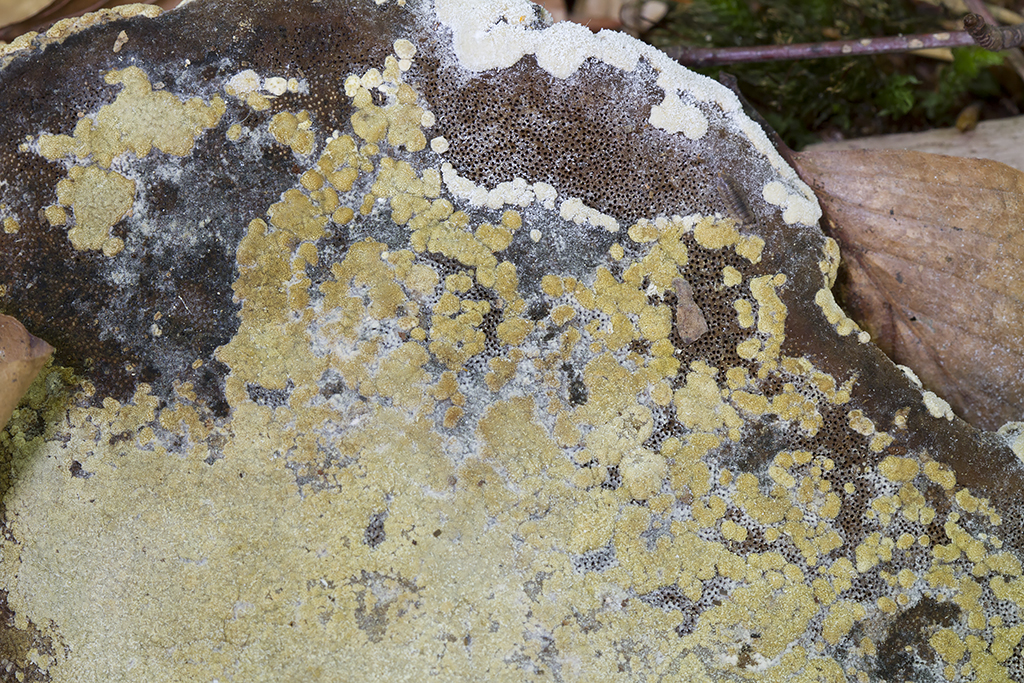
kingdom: Fungi
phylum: Ascomycota
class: Sordariomycetes
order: Hypocreales
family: Hypocreaceae
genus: Trichoderma
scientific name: Trichoderma pulvinatum
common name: snyltende kødkerne
